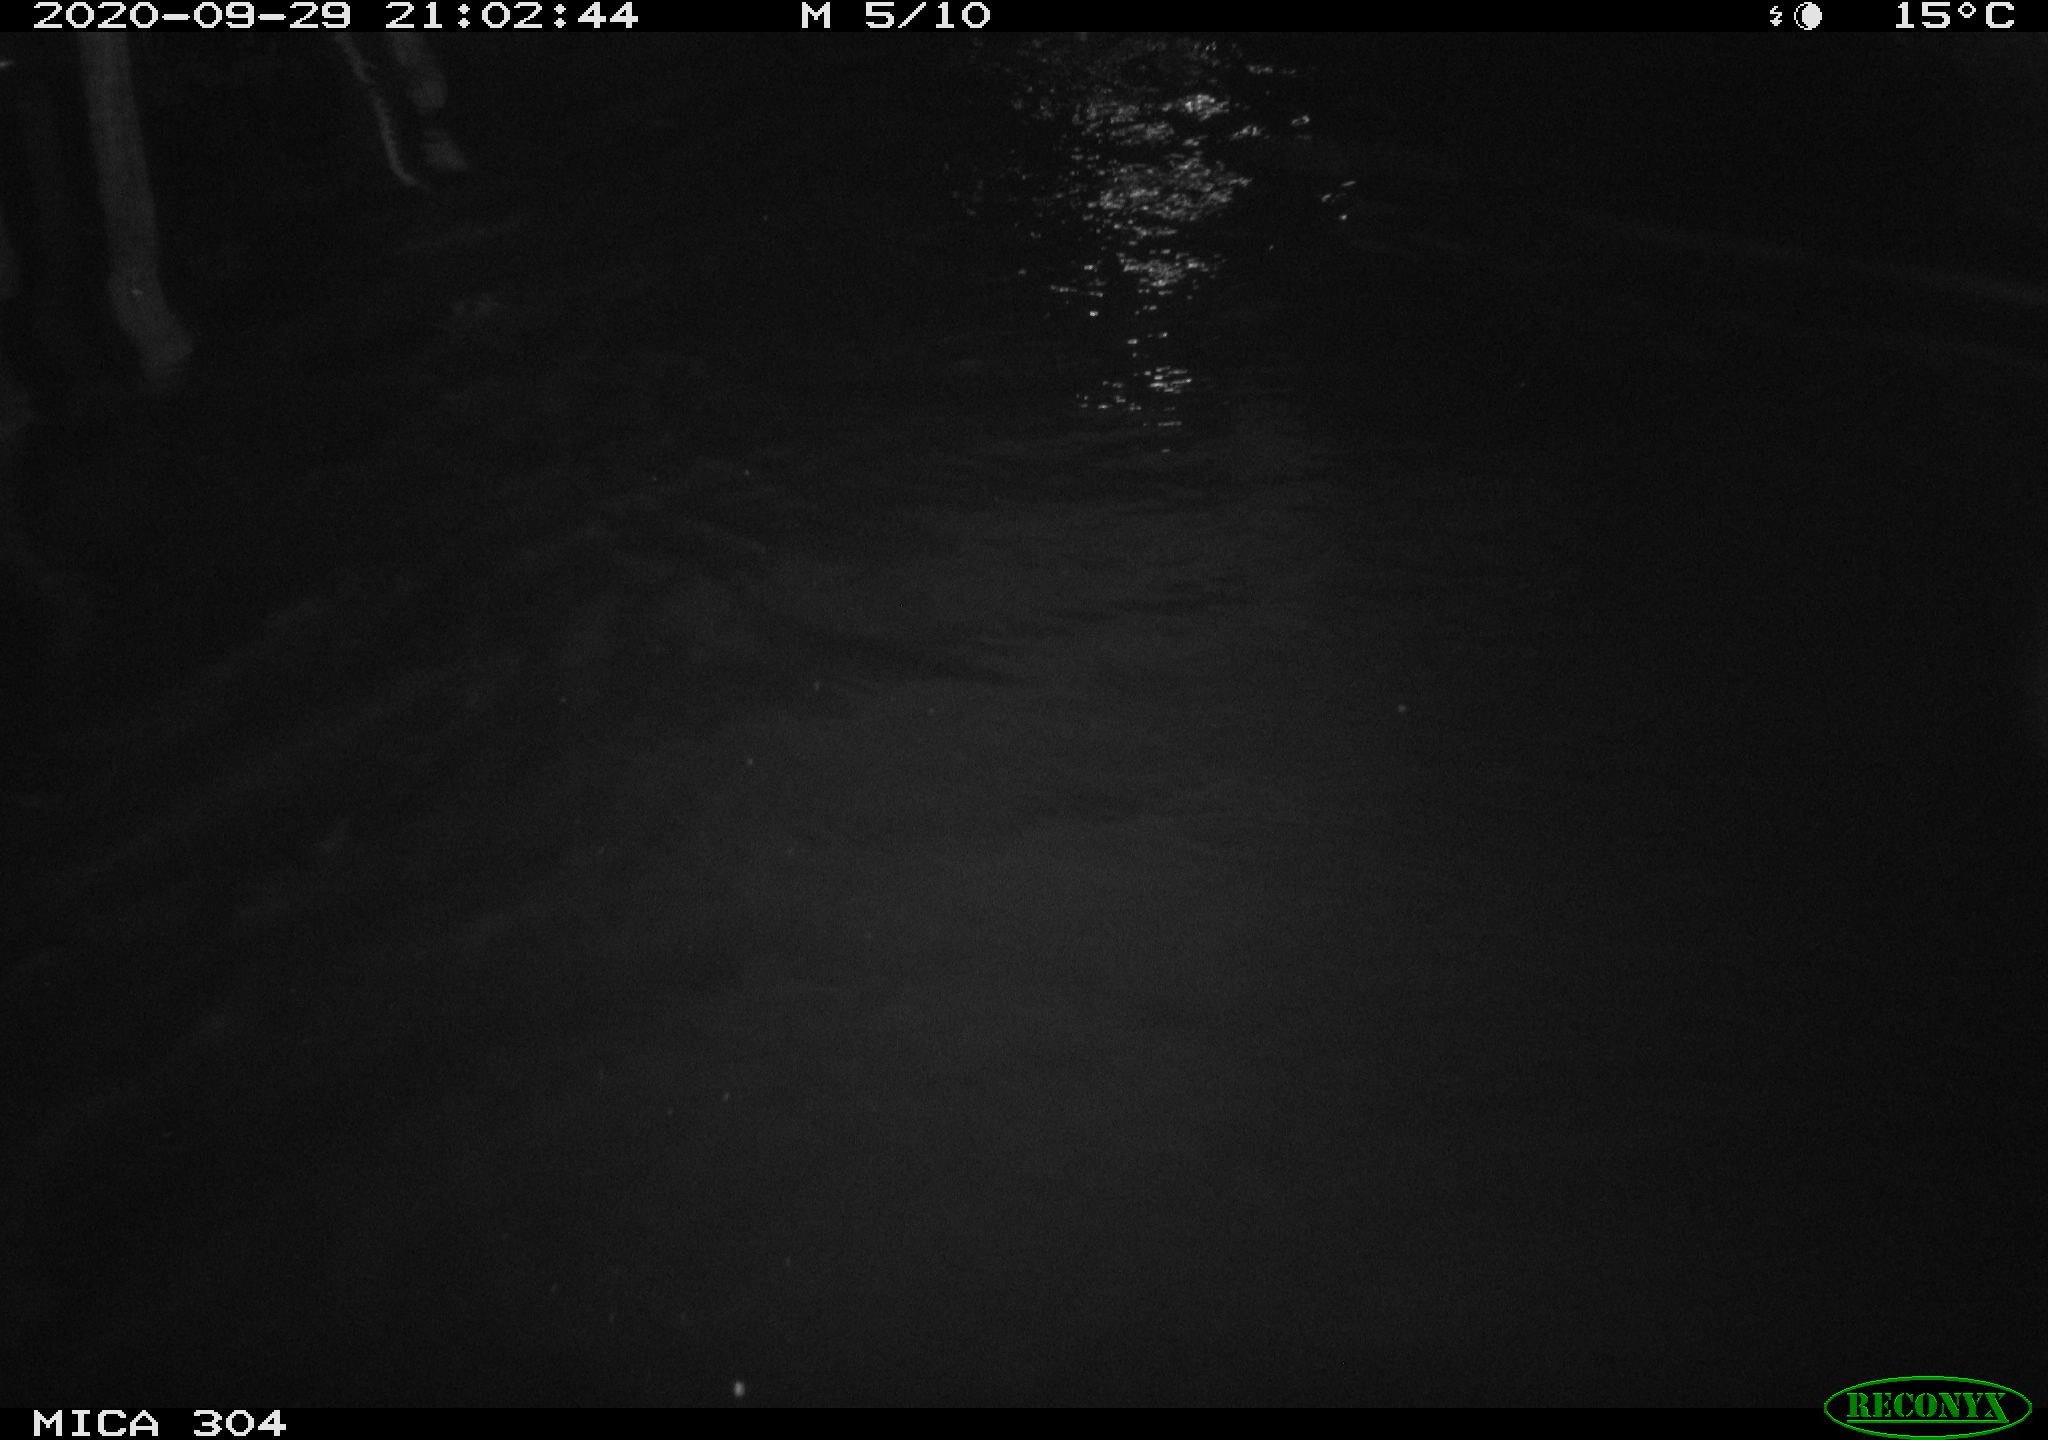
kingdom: Animalia
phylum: Chordata
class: Mammalia
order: Rodentia
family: Cricetidae
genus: Ondatra
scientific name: Ondatra zibethicus
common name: Muskrat
